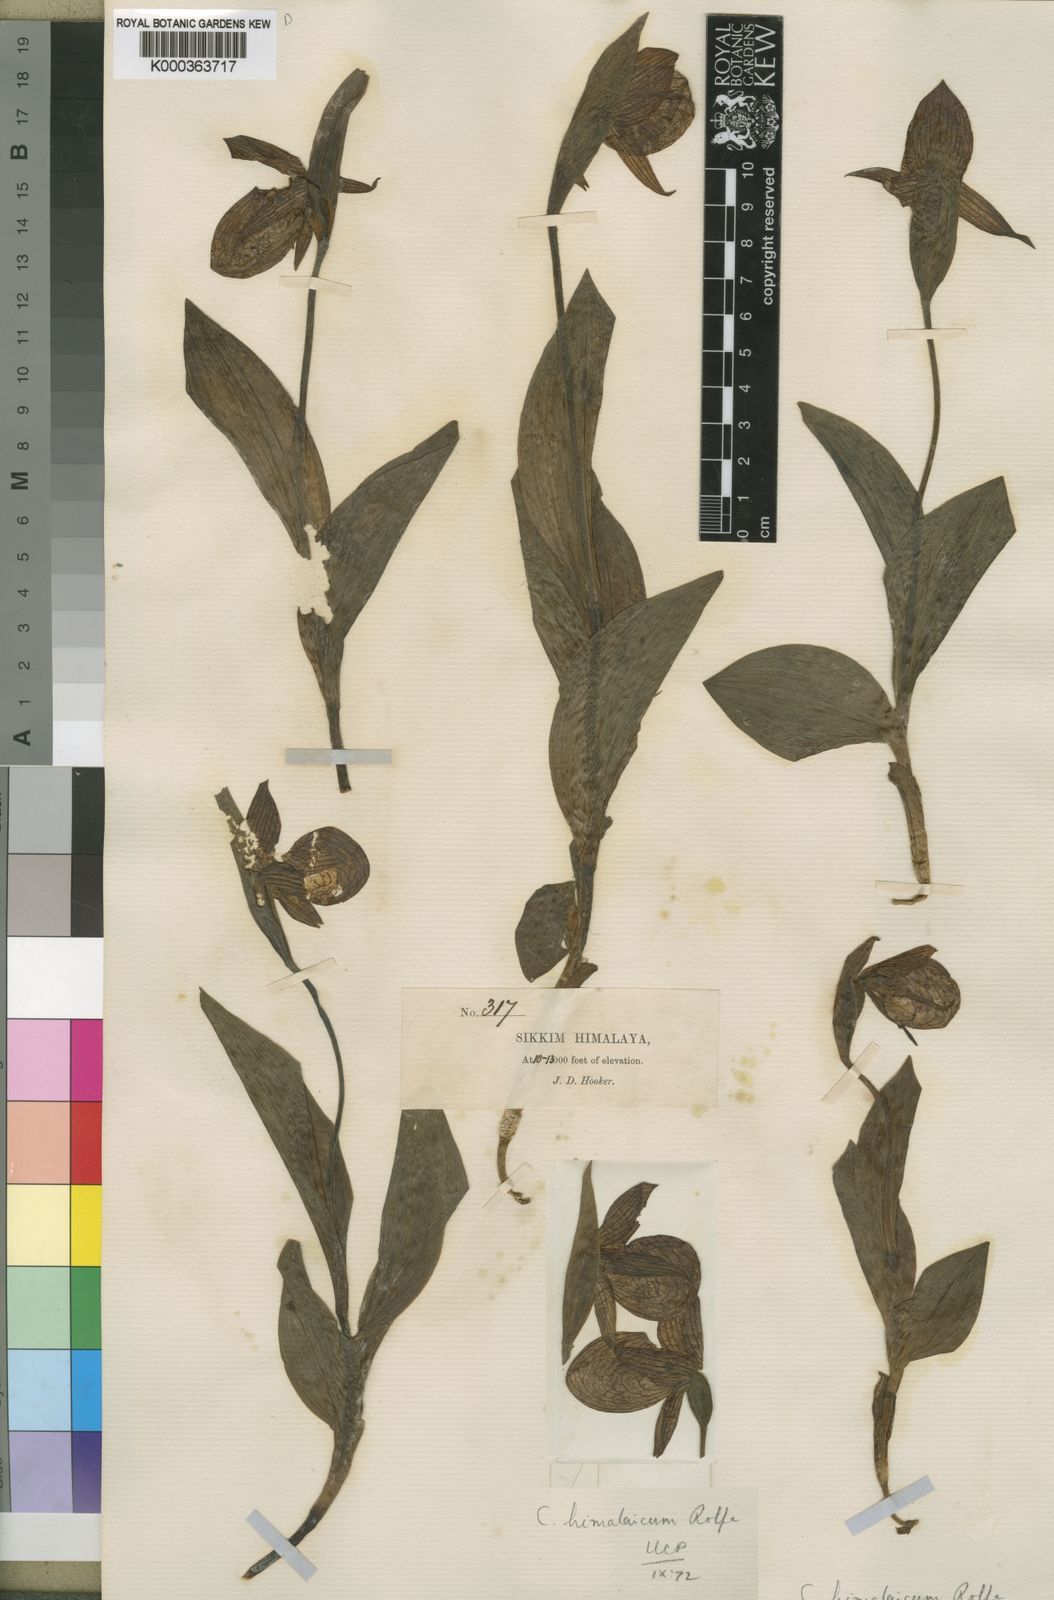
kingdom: Plantae
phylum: Tracheophyta
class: Liliopsida
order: Asparagales
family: Orchidaceae
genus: Cypripedium
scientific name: Cypripedium himalaicum
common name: Himalayan cypripedium
